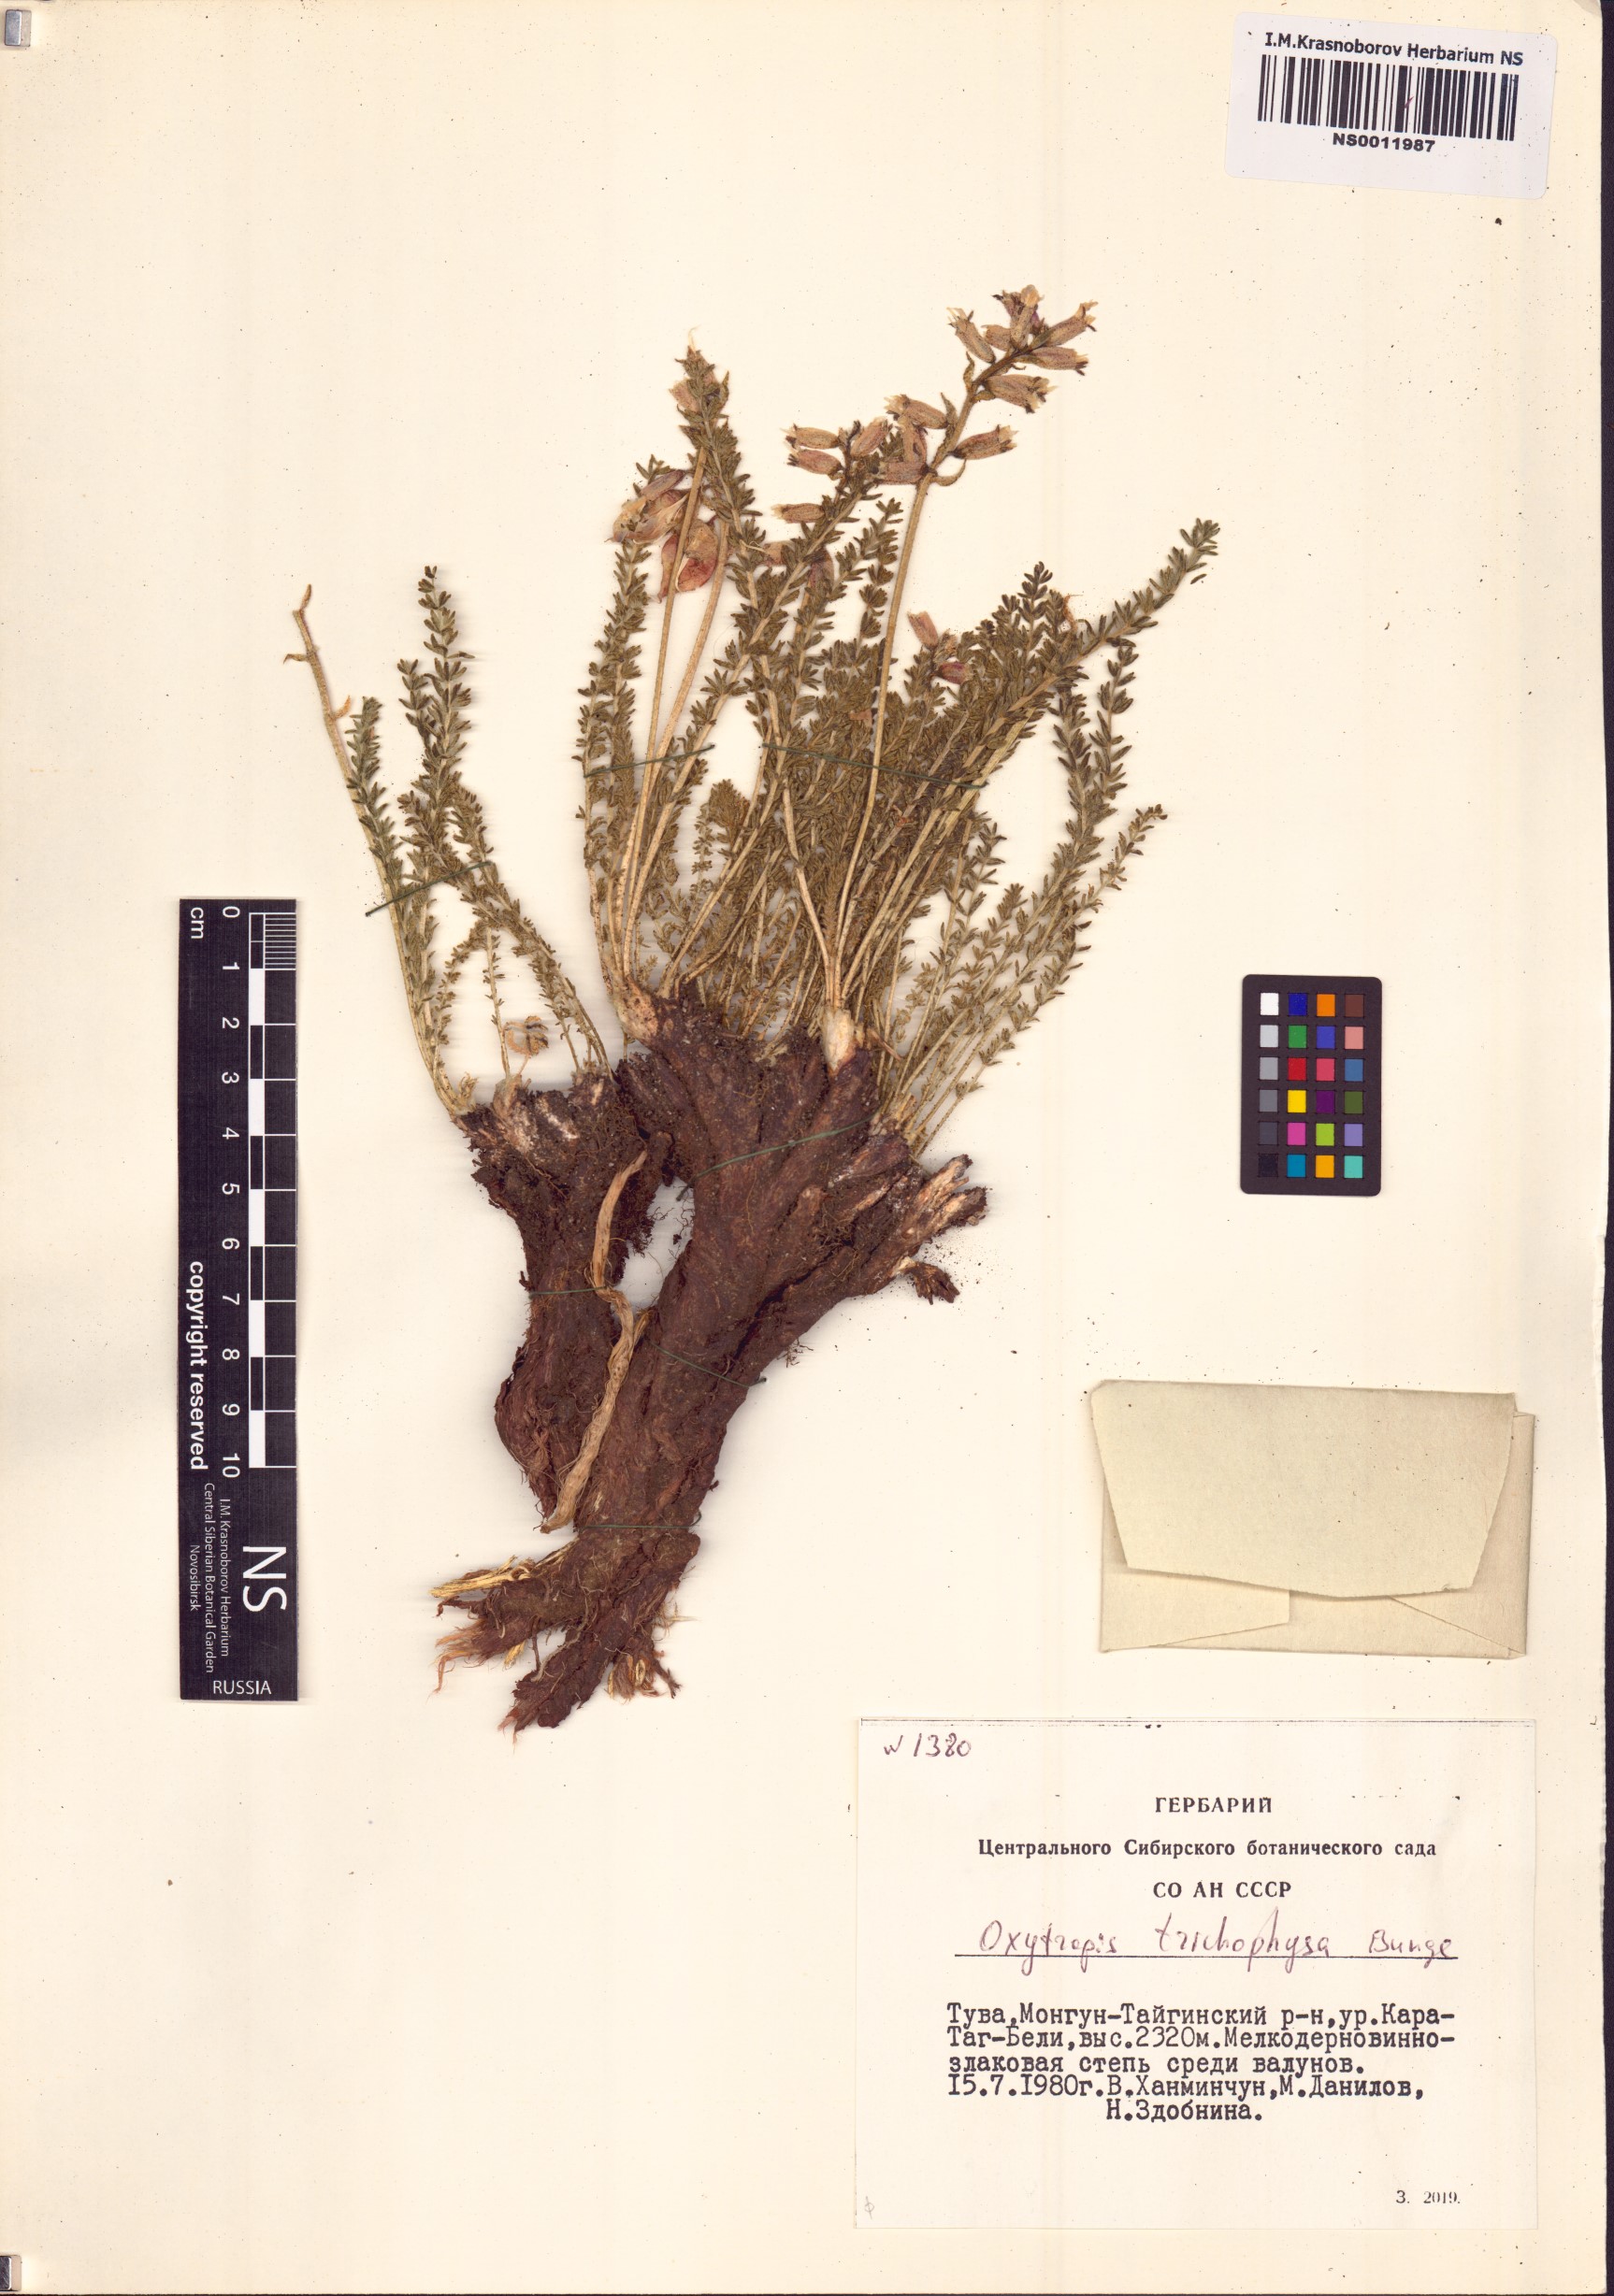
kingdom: Plantae
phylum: Tracheophyta
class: Magnoliopsida
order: Fabales
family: Fabaceae
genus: Oxytropis
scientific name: Oxytropis trichophysa
